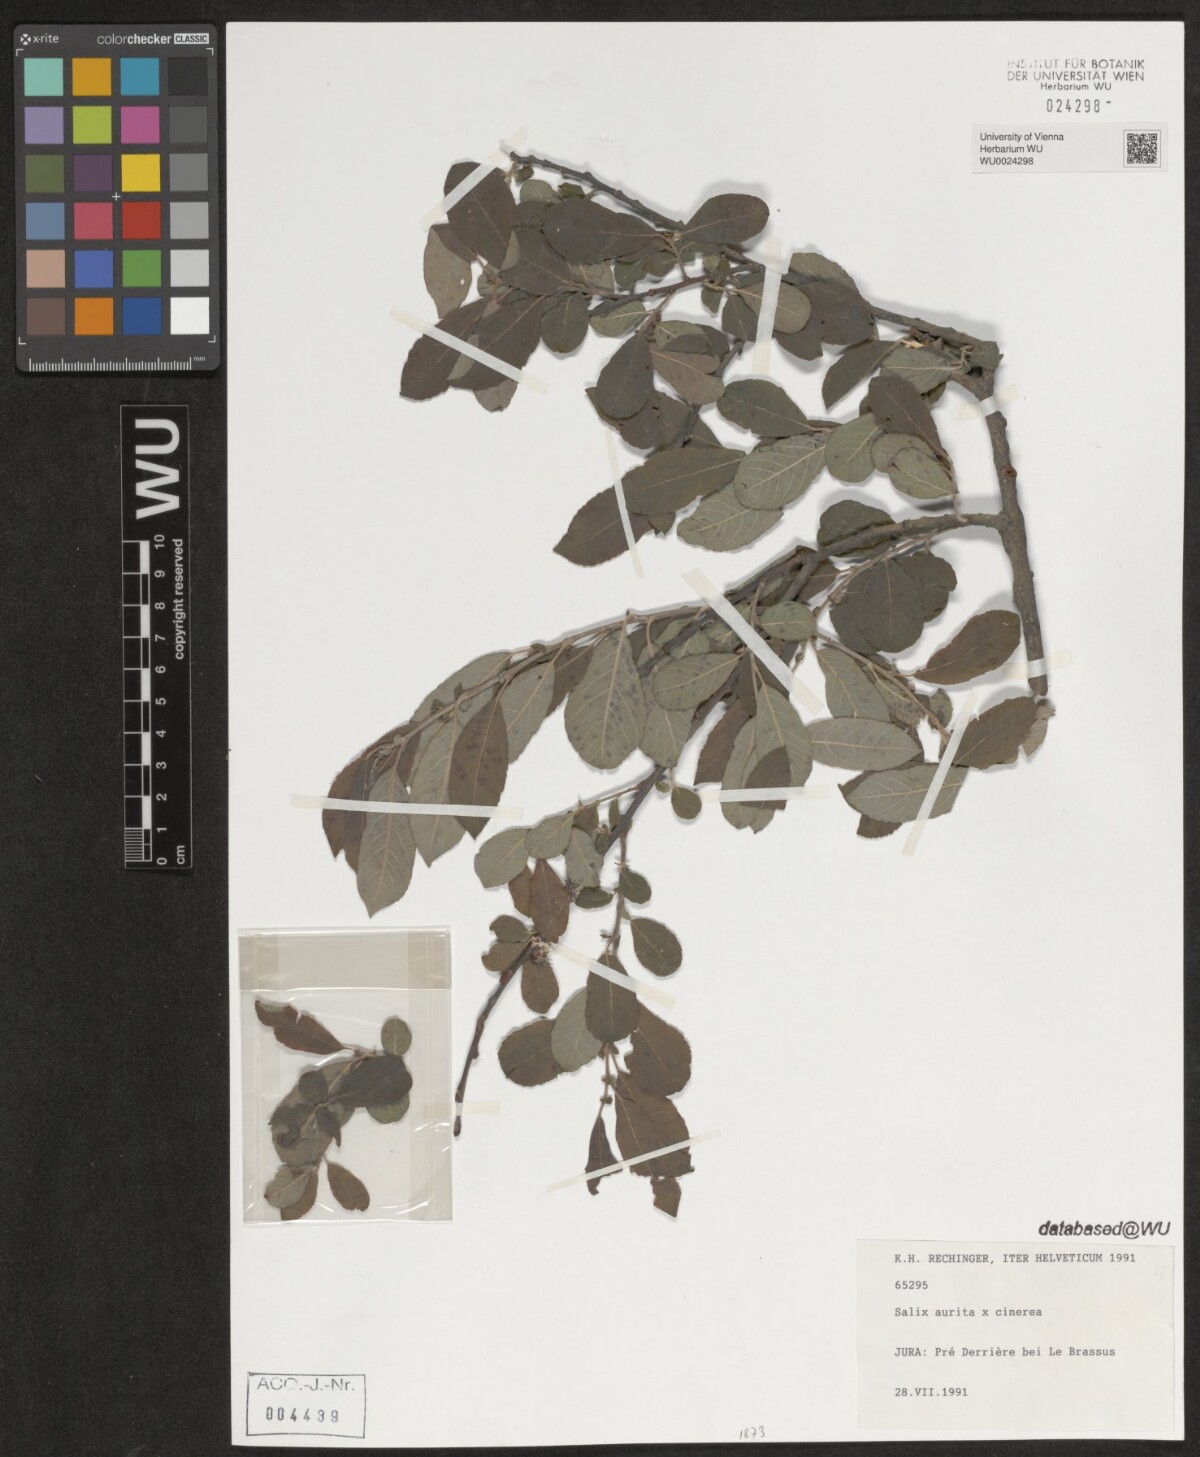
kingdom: Plantae
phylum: Tracheophyta
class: Magnoliopsida
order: Malpighiales
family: Salicaceae
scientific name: Salicaceae
